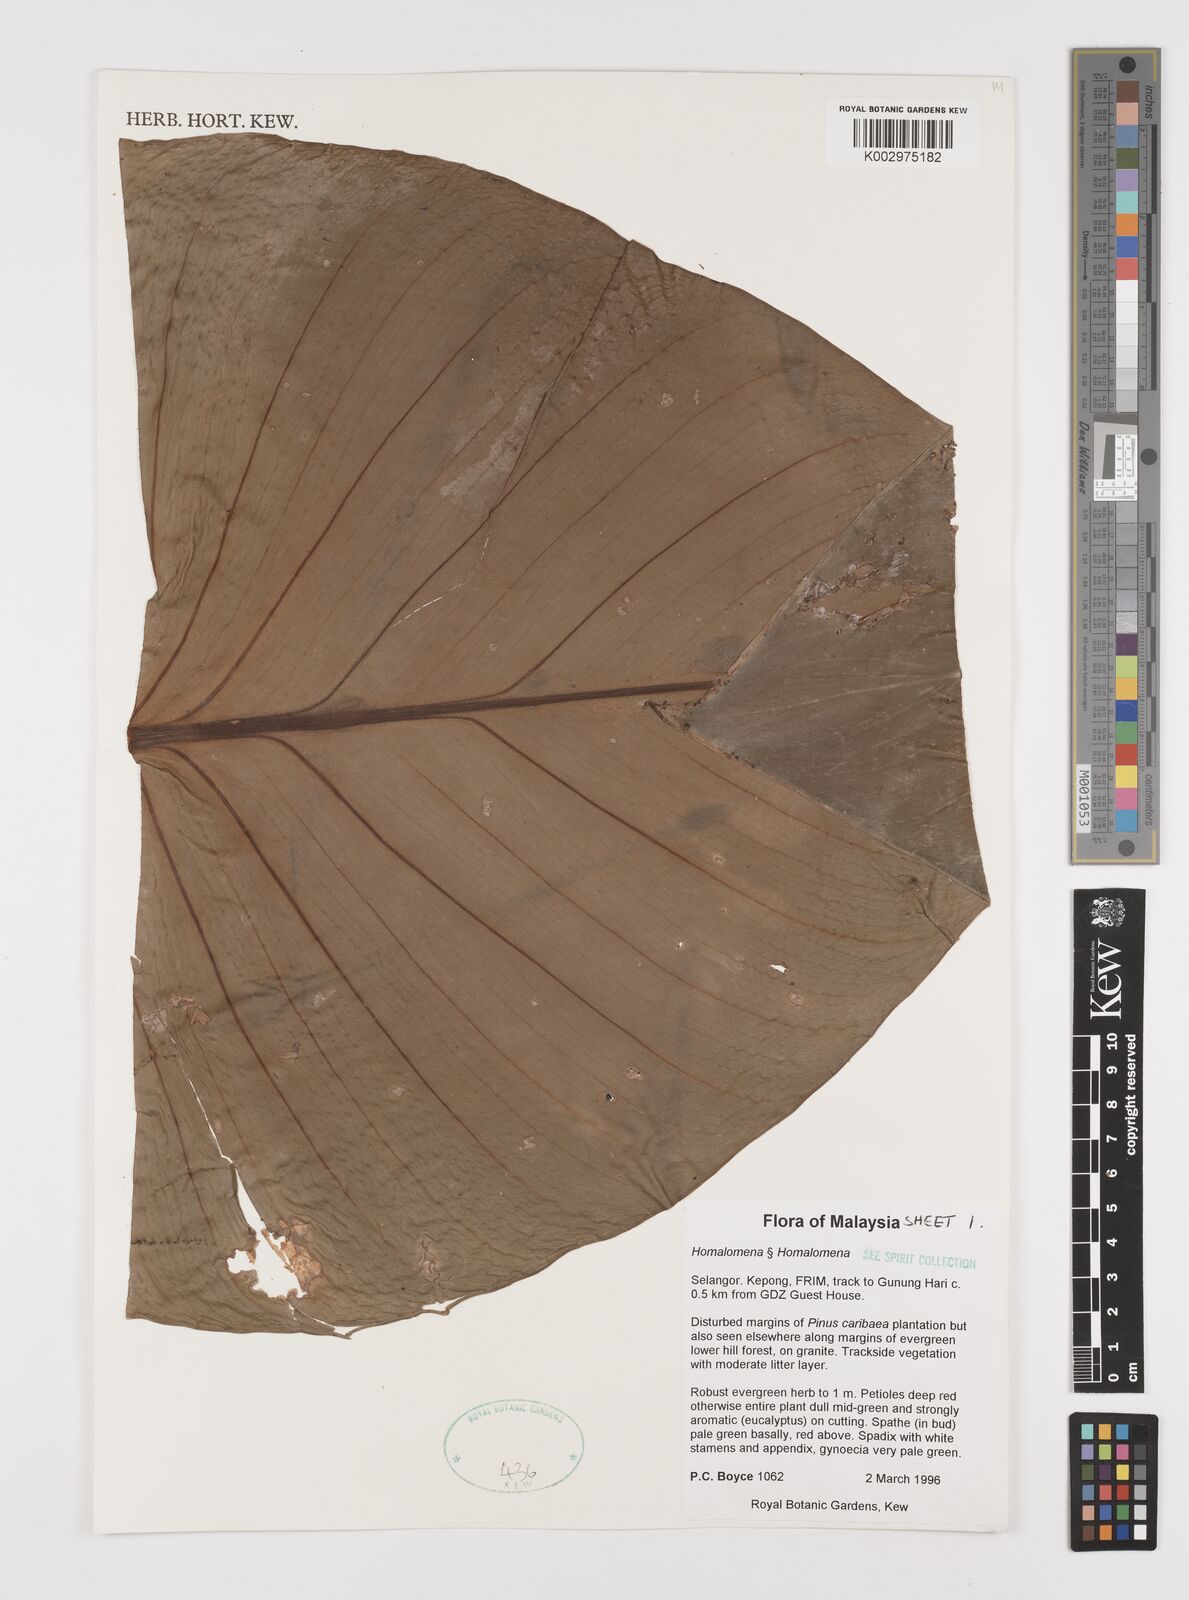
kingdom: Plantae
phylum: Tracheophyta
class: Liliopsida
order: Alismatales
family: Araceae
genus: Homalomena
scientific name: Homalomena
